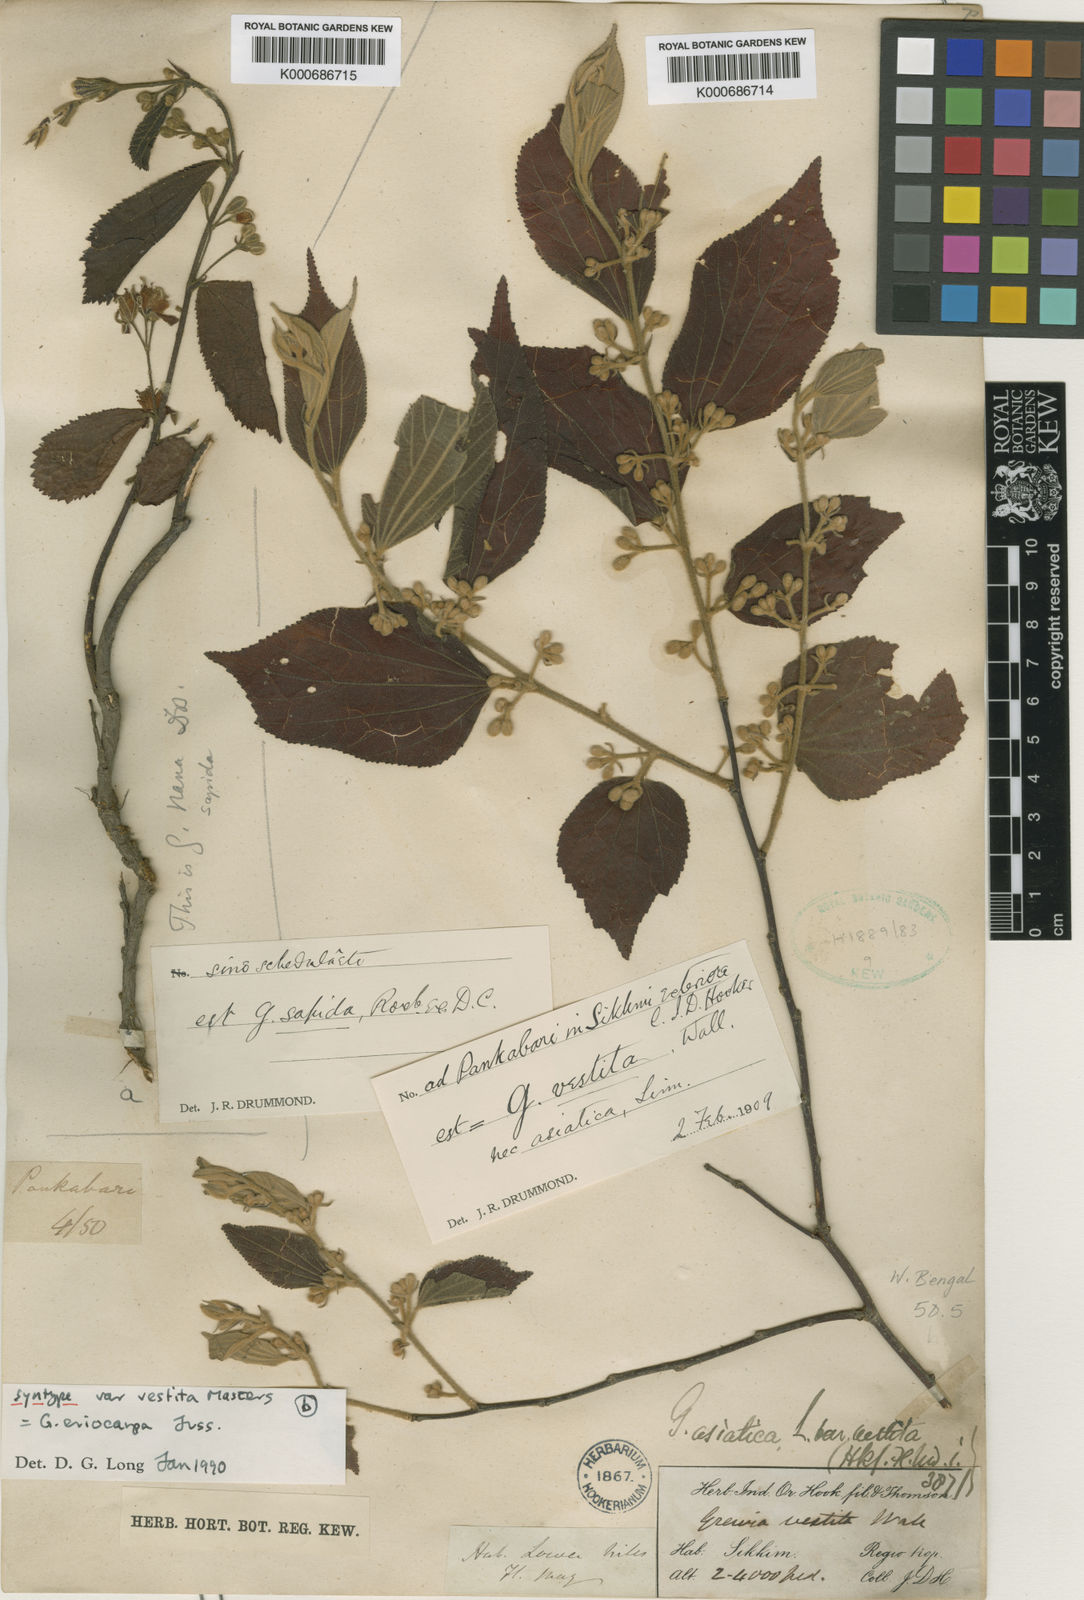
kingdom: Plantae
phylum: Tracheophyta
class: Magnoliopsida
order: Malvales
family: Malvaceae
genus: Grewia
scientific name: Grewia eriocarpa
